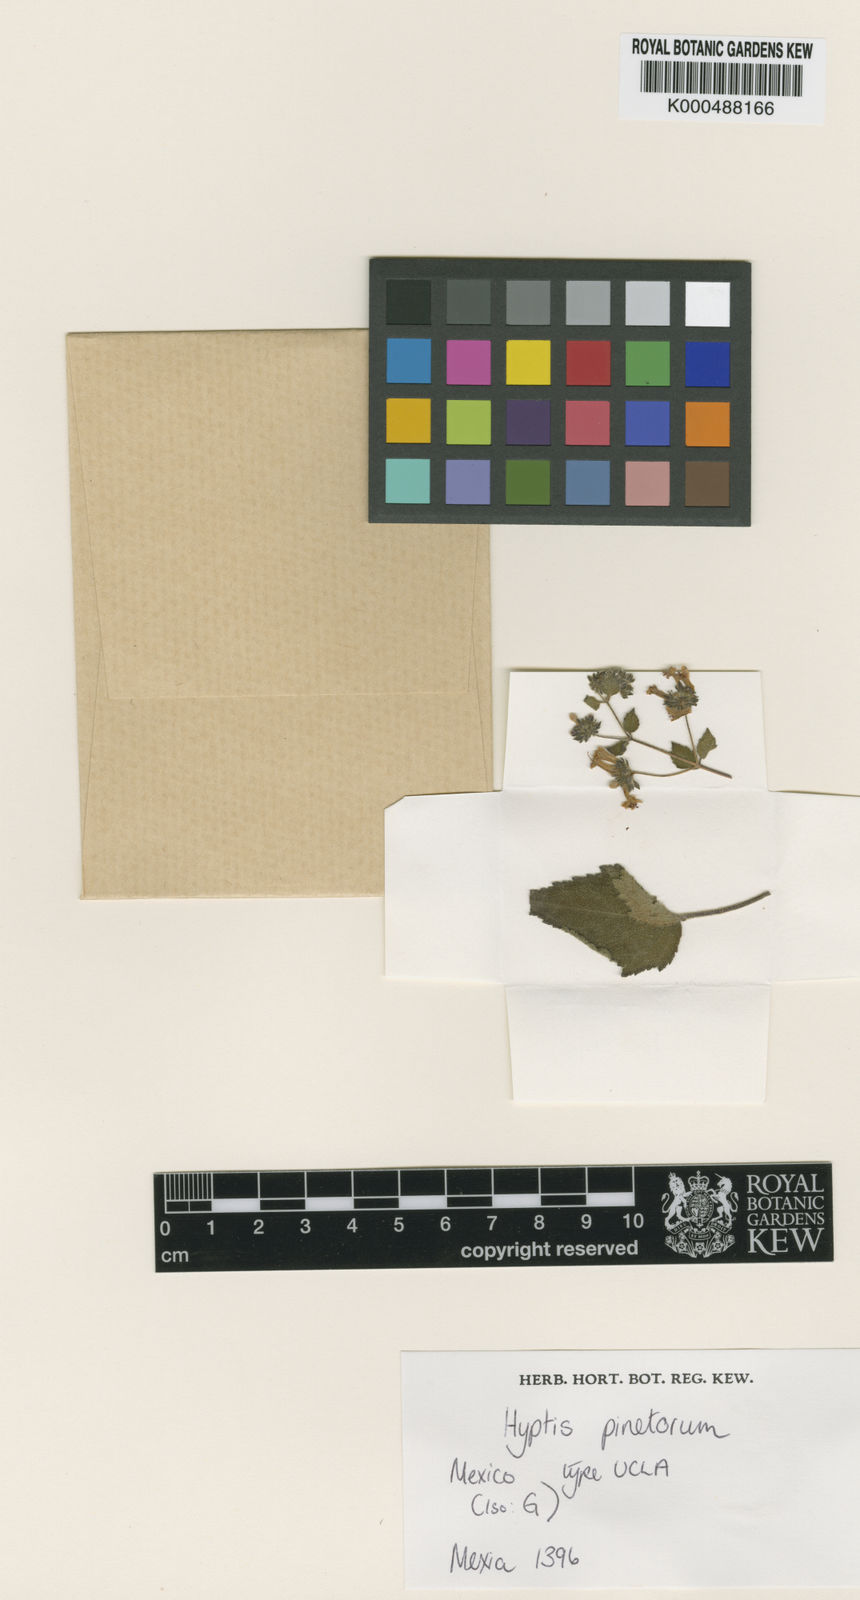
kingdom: Plantae
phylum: Tracheophyta
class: Magnoliopsida
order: Lamiales
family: Lamiaceae
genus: Cantinoa
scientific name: Cantinoa pinetorum
